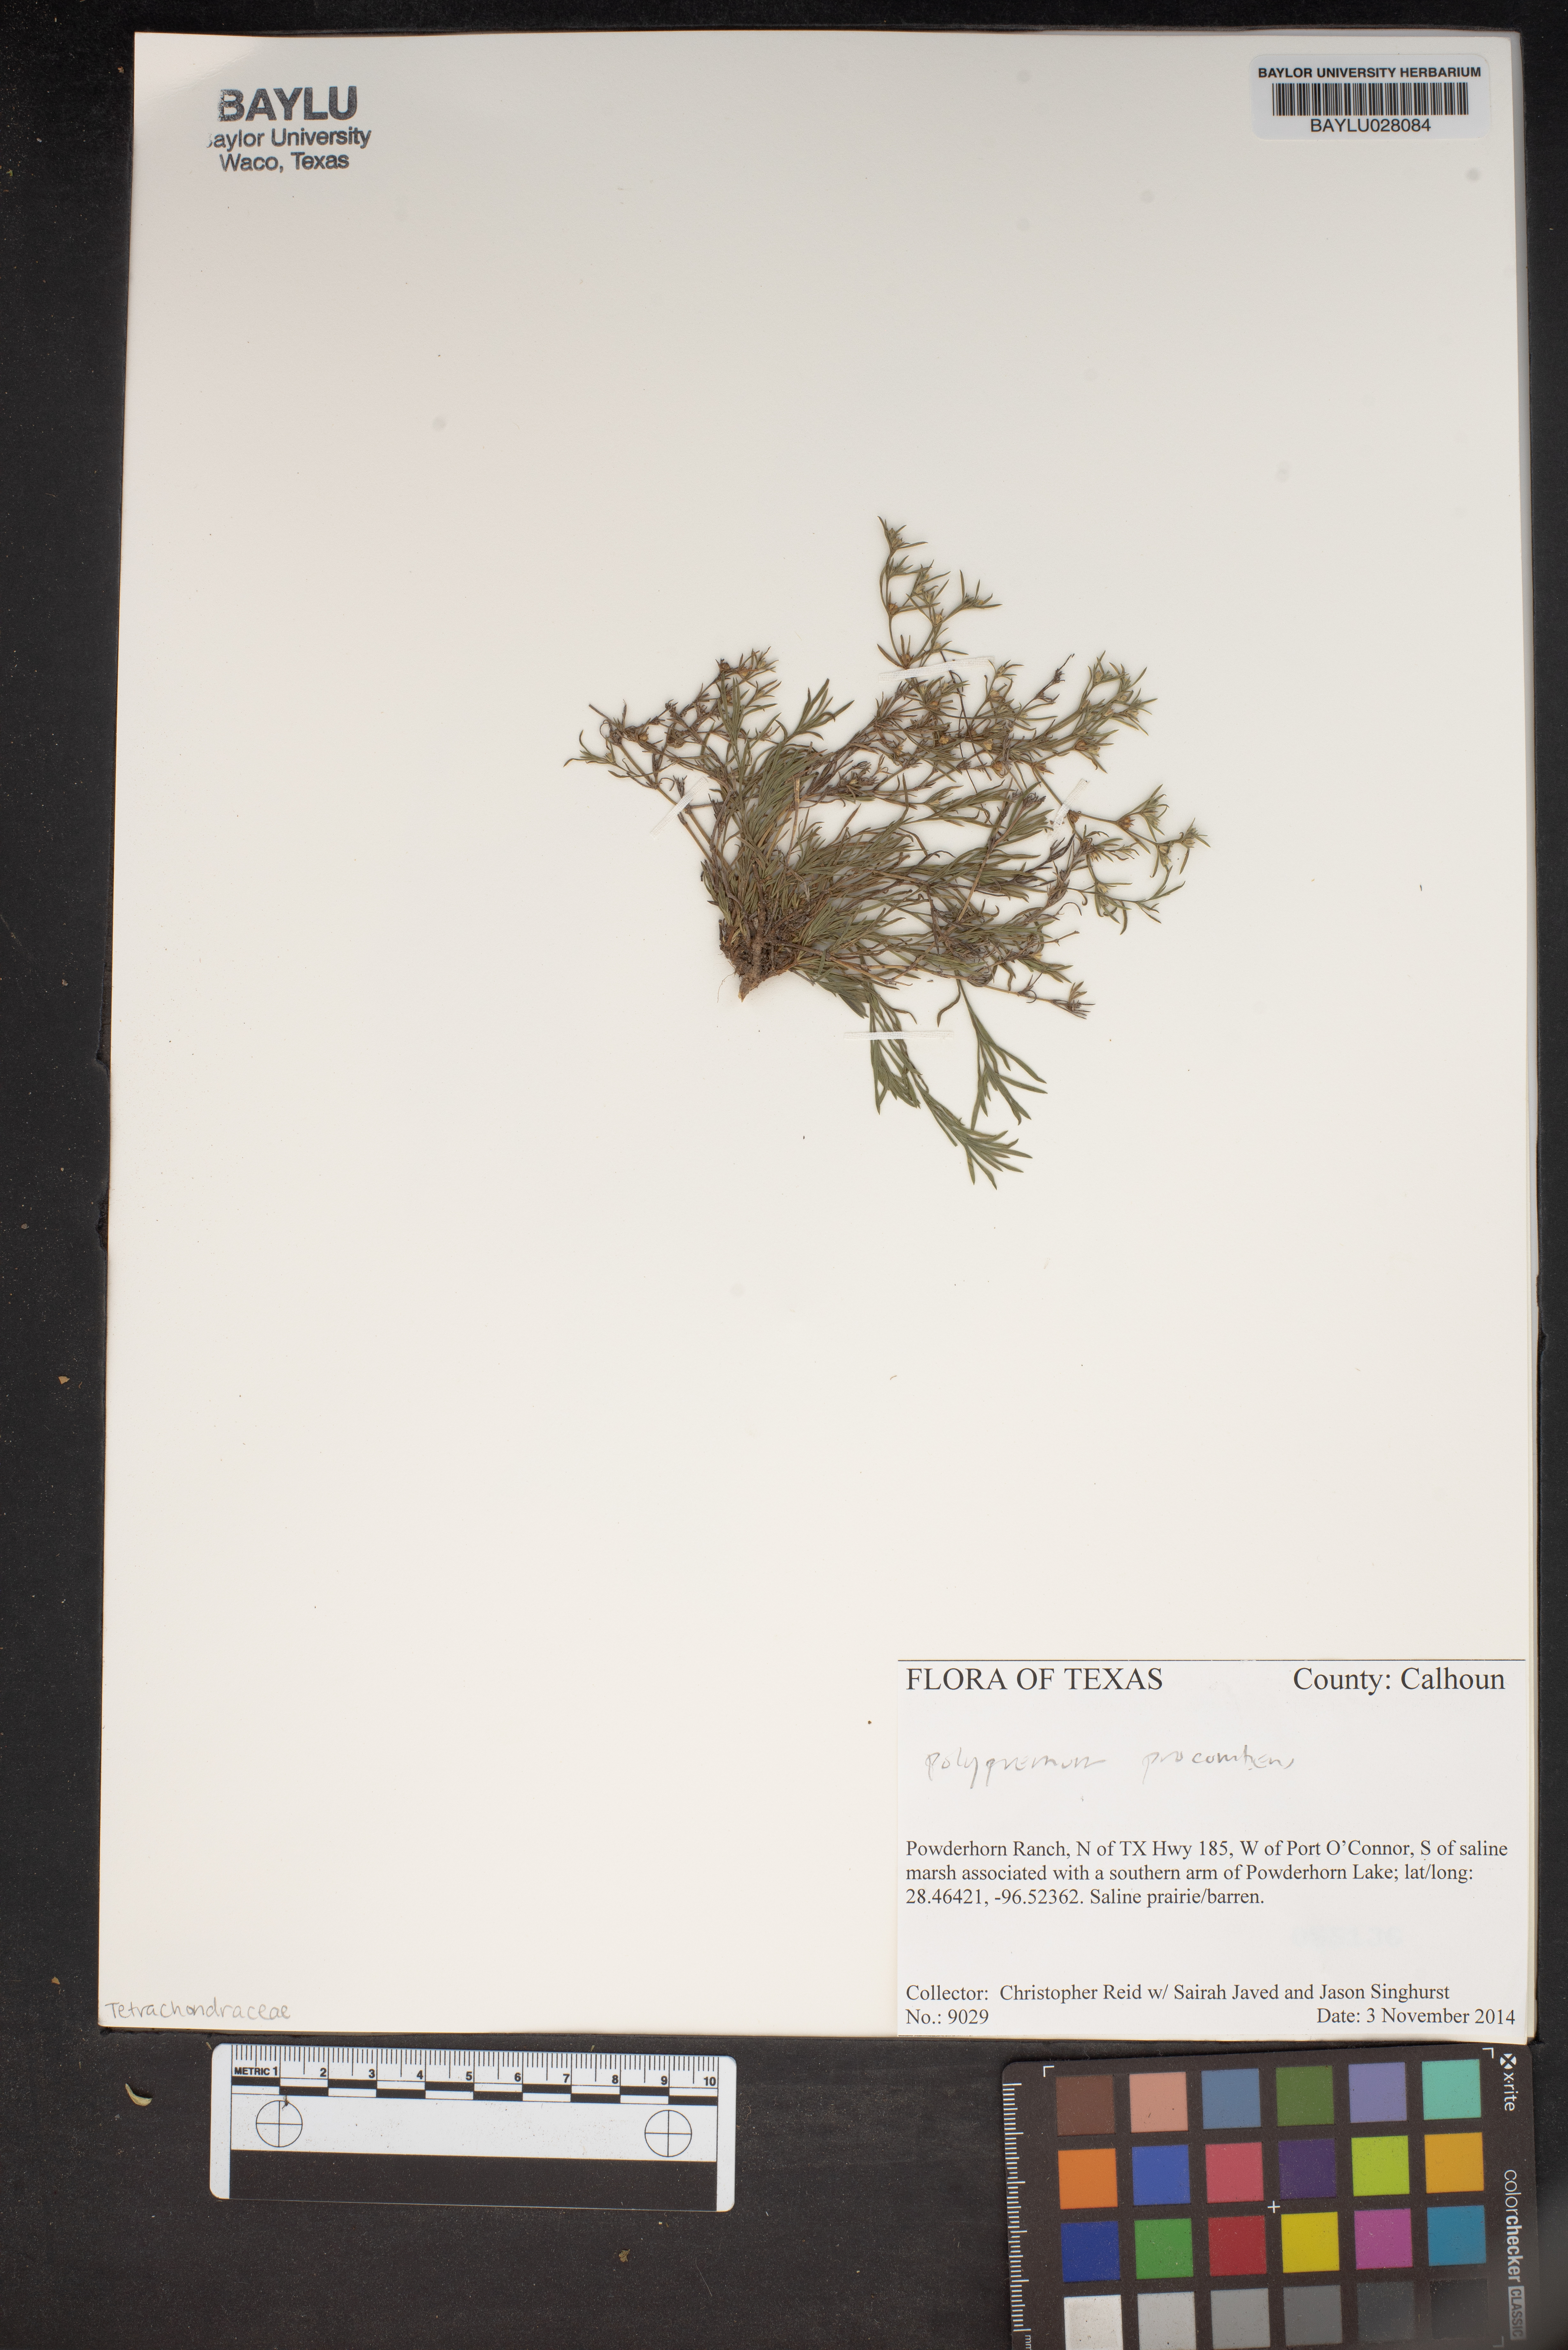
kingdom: Plantae
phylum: Tracheophyta
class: Magnoliopsida
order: Caryophyllales
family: Polygonaceae
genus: Polygonum
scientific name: Polygonum
